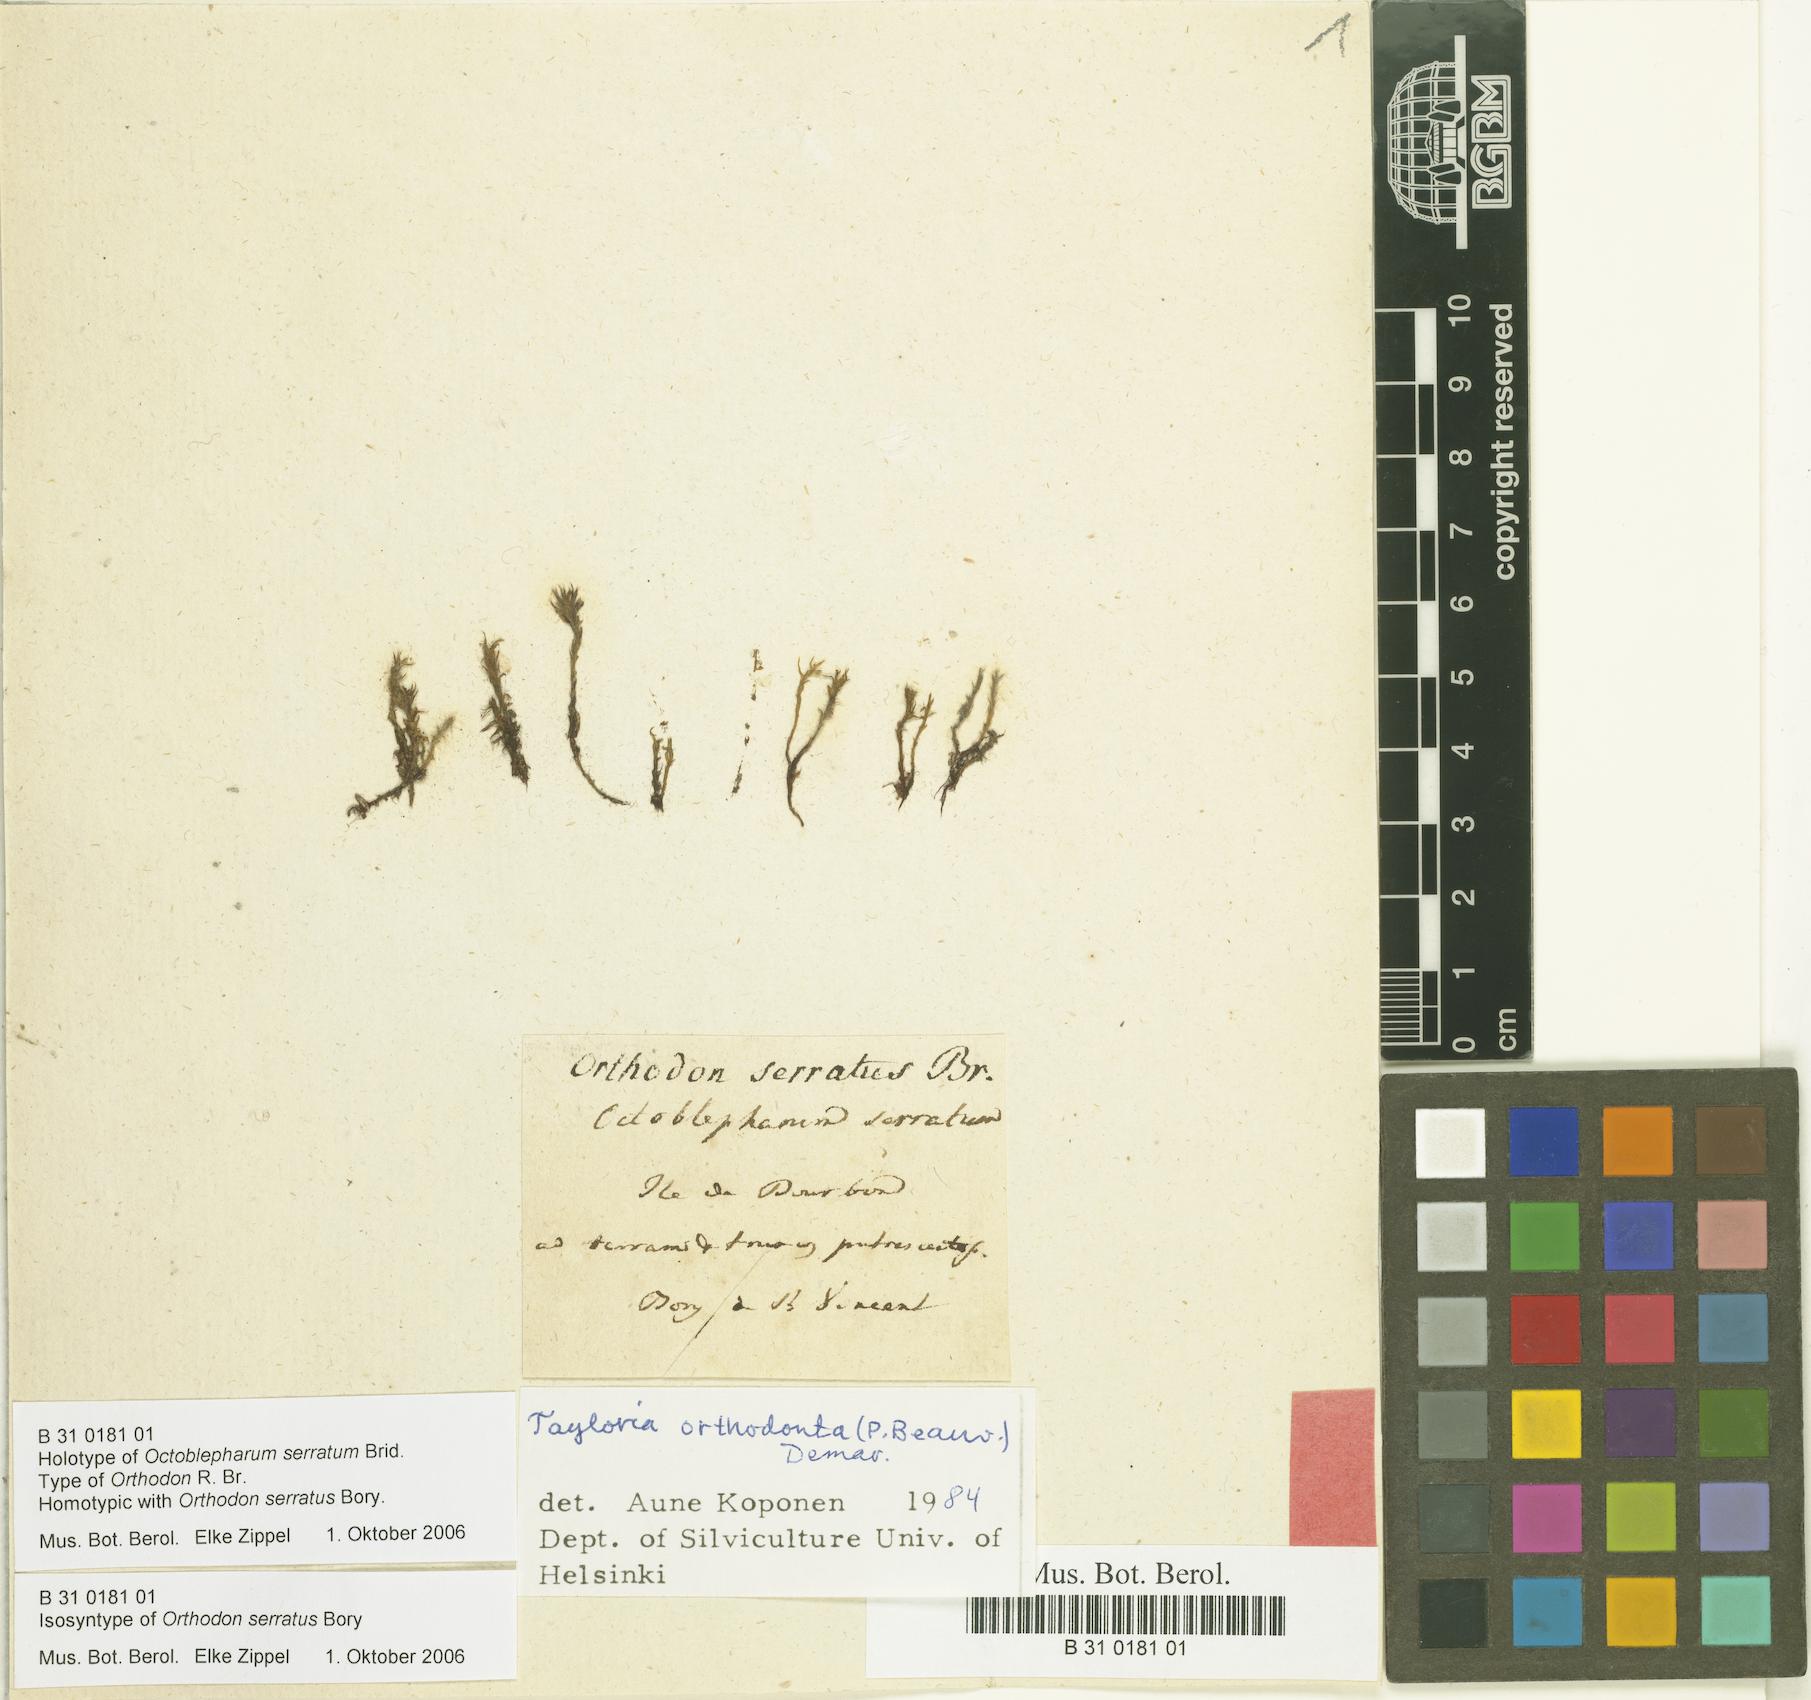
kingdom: Plantae
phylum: Bryophyta
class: Bryopsida
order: Splachnales
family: Splachnaceae
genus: Tayloria
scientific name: Tayloria orthodonta
